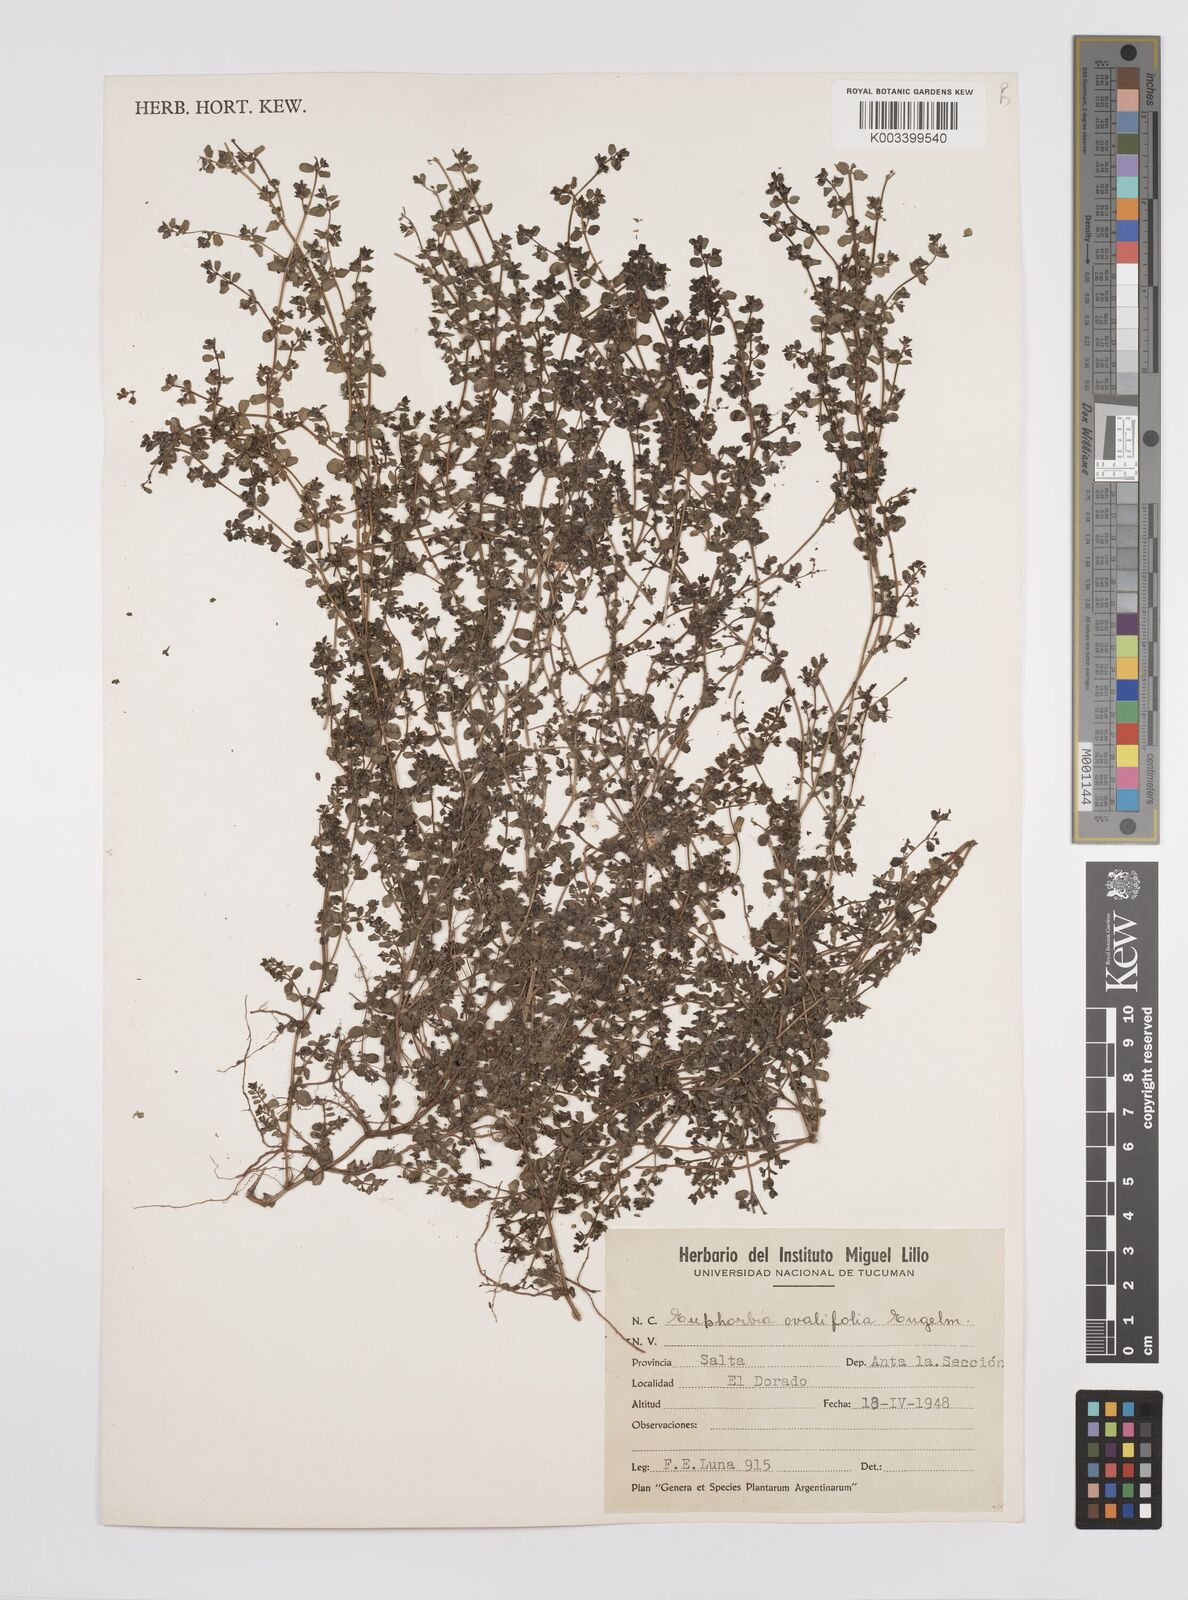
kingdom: Plantae
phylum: Tracheophyta
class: Magnoliopsida
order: Malpighiales
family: Euphorbiaceae
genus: Euphorbia
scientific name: Euphorbia
